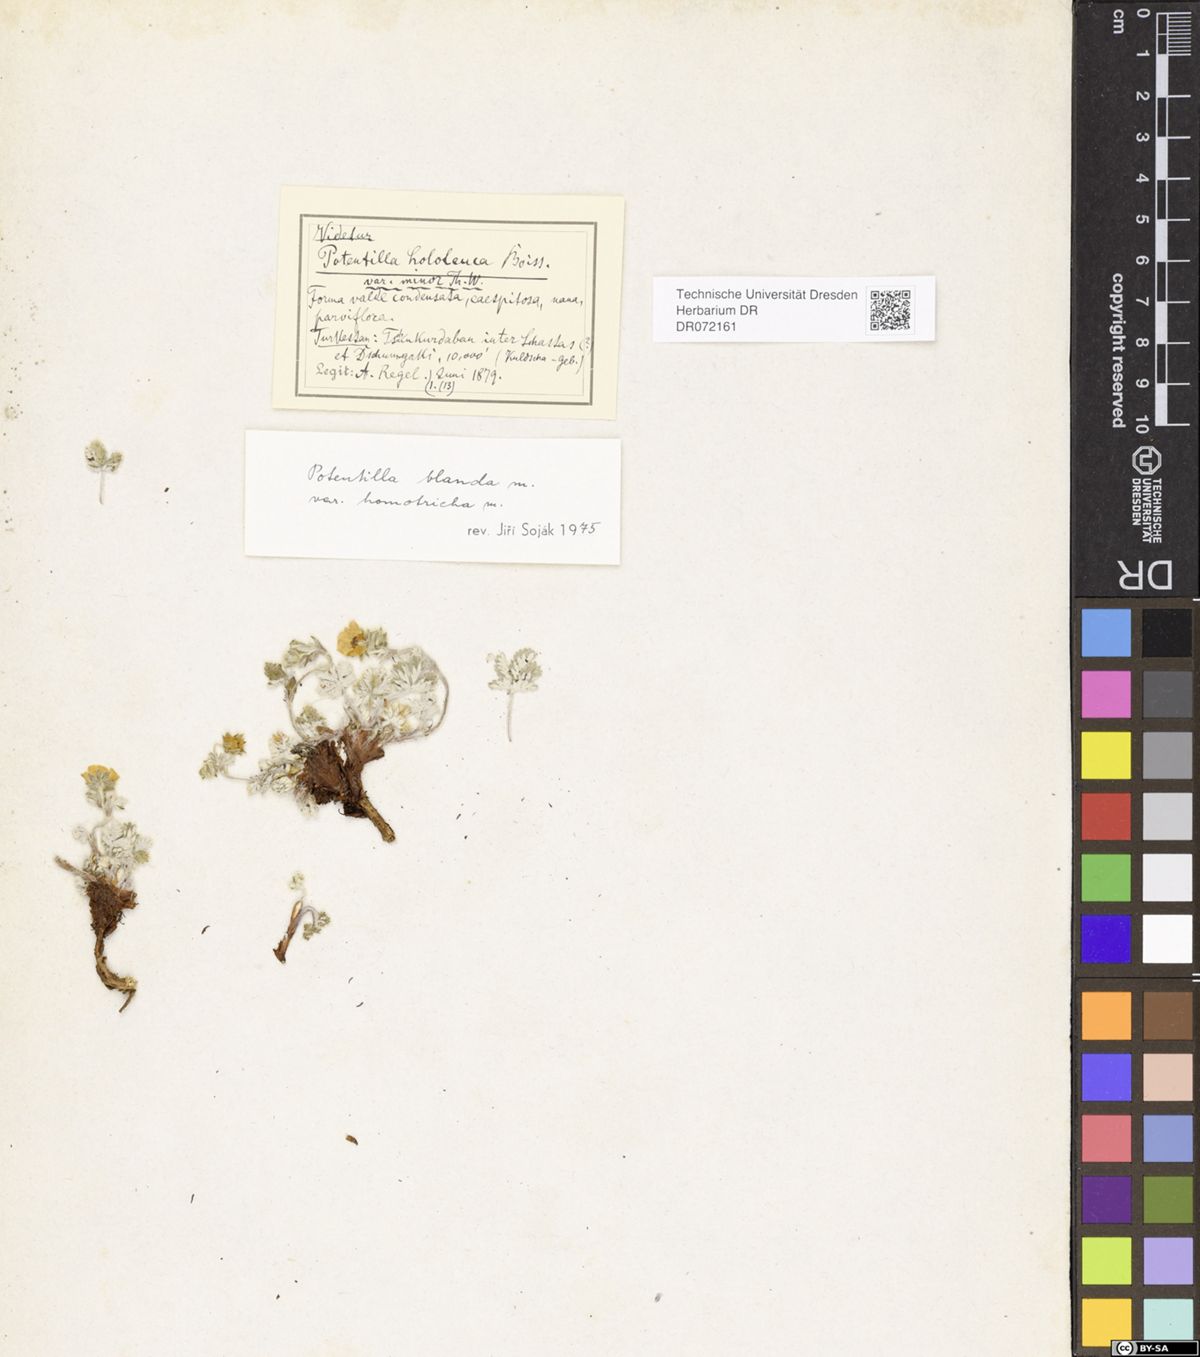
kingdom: Plantae
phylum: Tracheophyta
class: Magnoliopsida
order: Rosales
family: Rosaceae
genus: Potentilla
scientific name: Potentilla hololeuca
